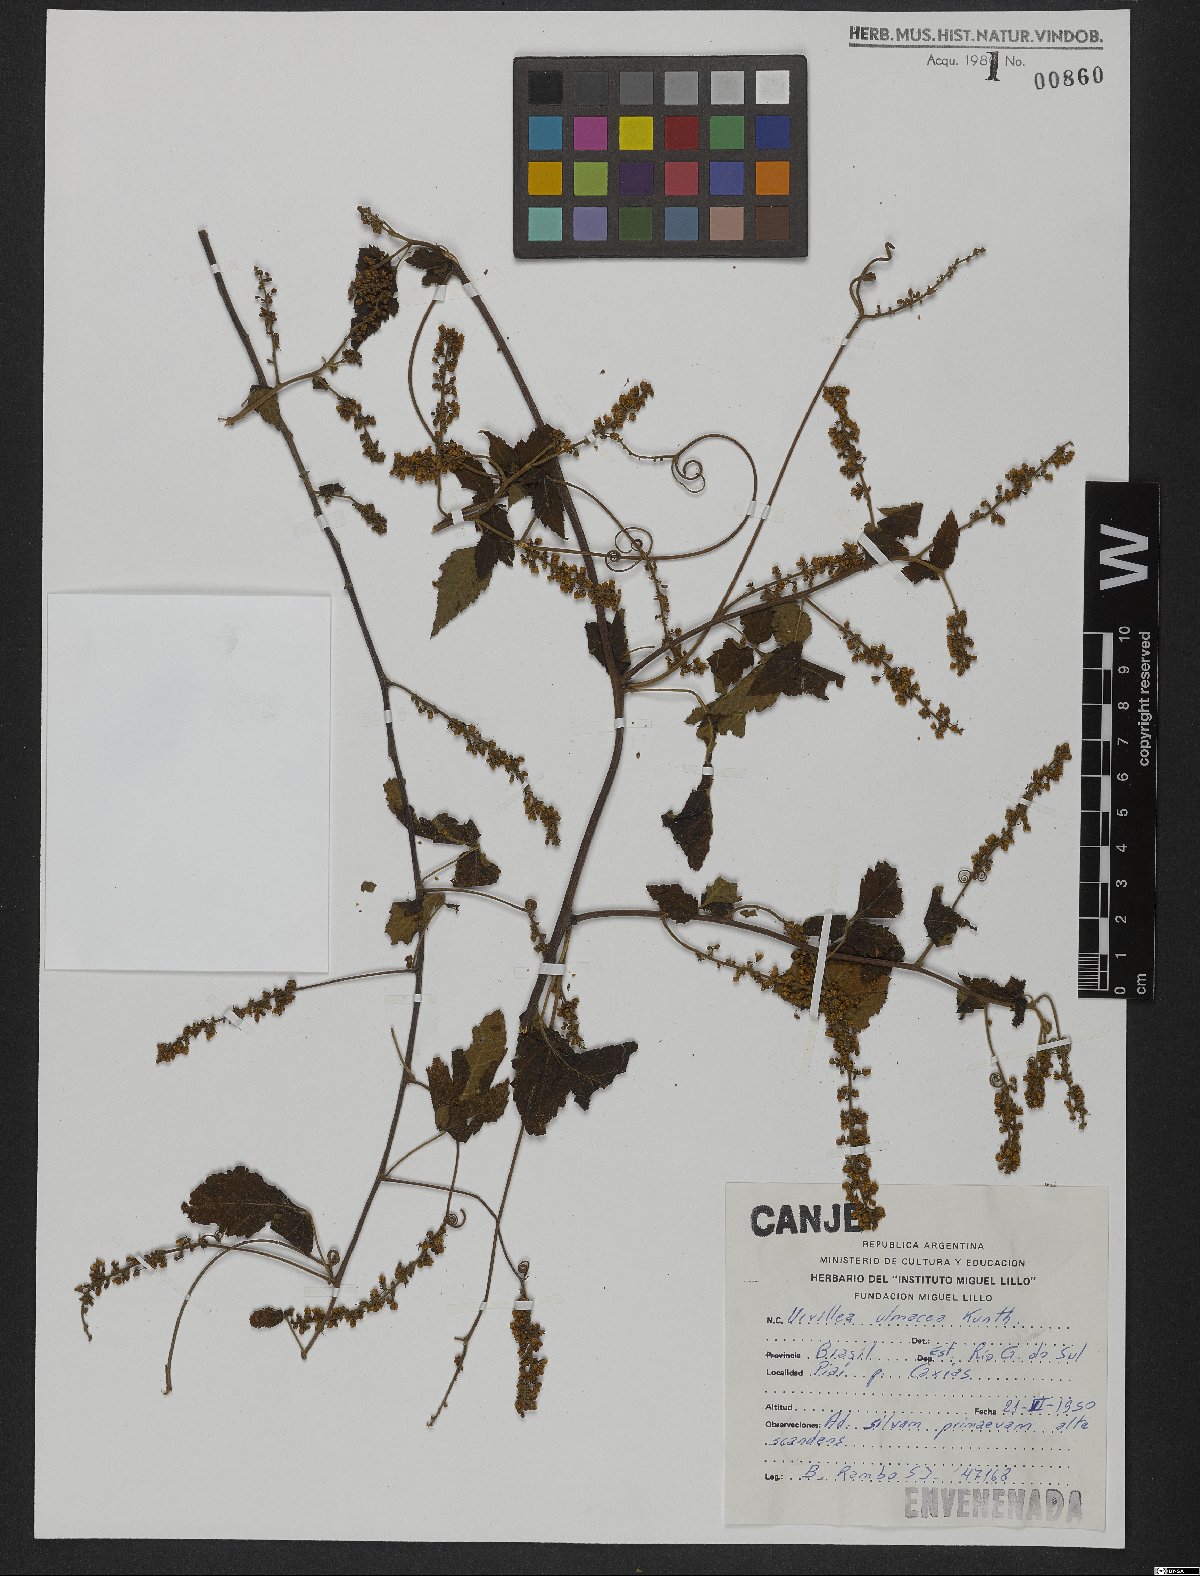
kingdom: Plantae
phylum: Tracheophyta
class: Magnoliopsida
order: Sapindales
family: Sapindaceae
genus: Urvillea
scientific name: Urvillea ulmacea
